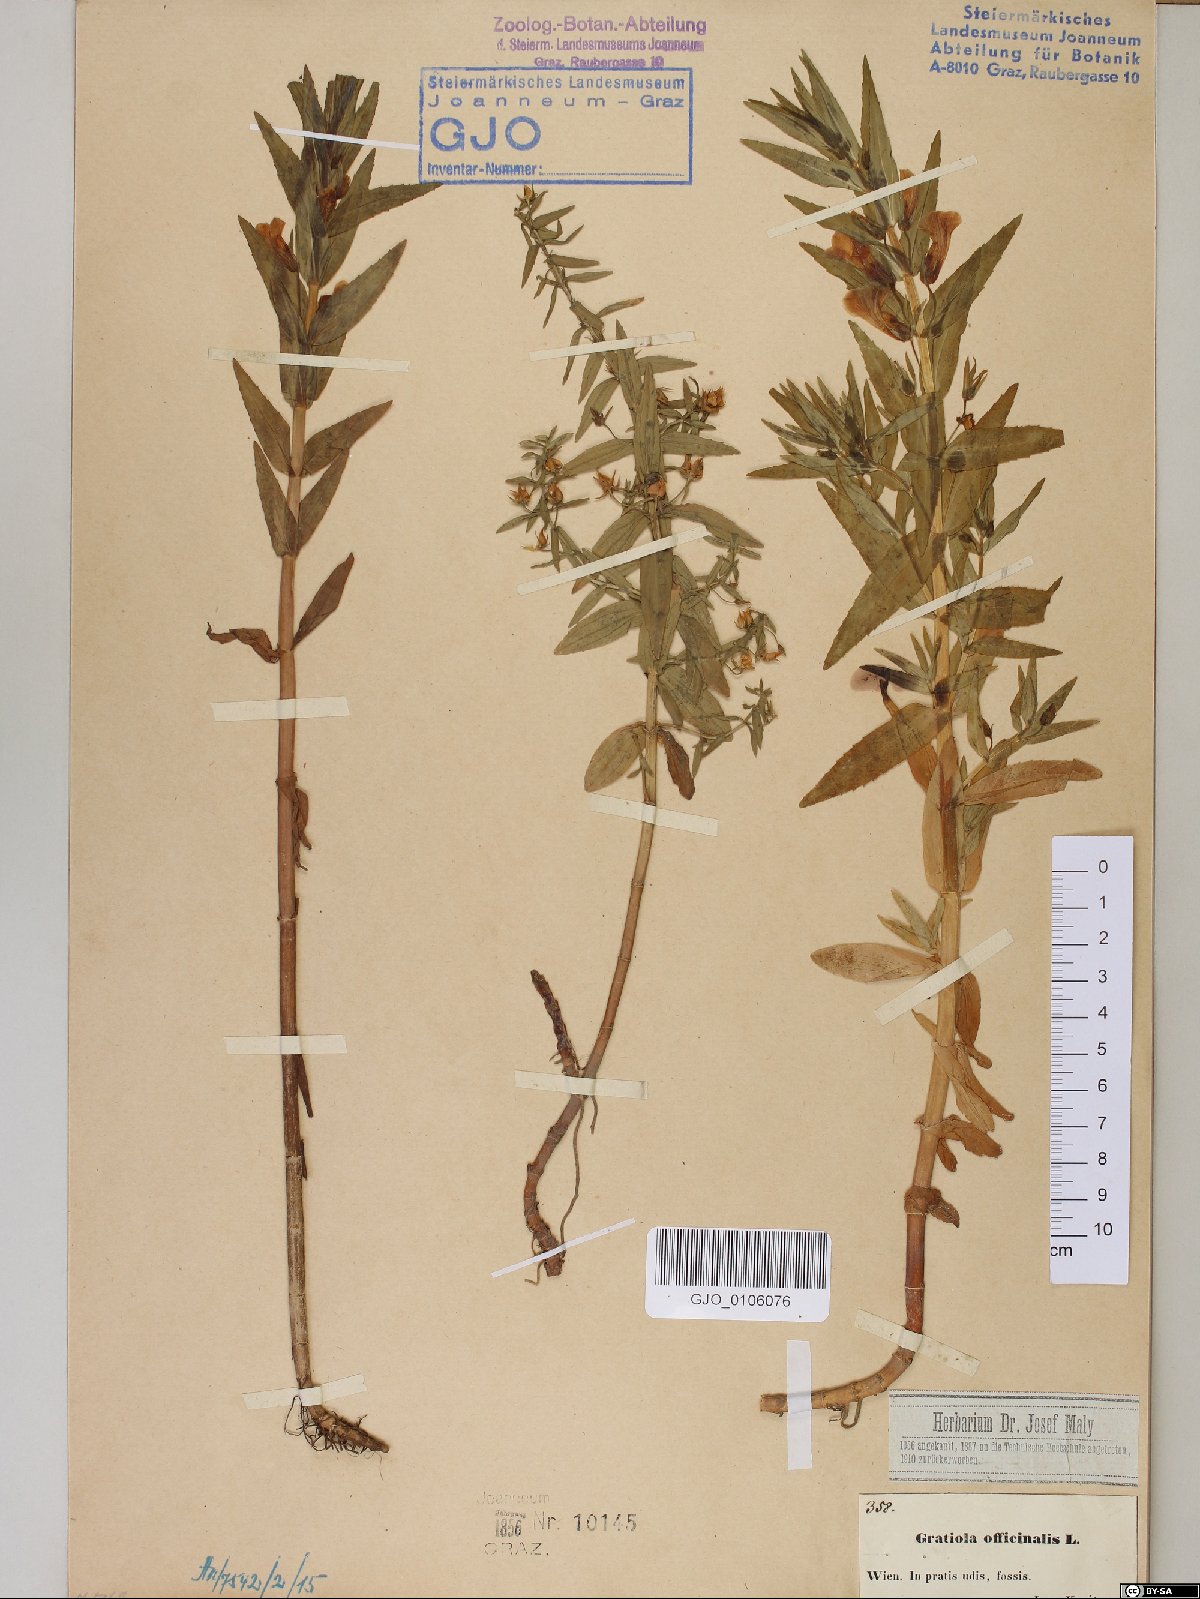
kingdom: Plantae
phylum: Tracheophyta
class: Magnoliopsida
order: Lamiales
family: Plantaginaceae
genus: Gratiola
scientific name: Gratiola officinalis
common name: Gratiola
